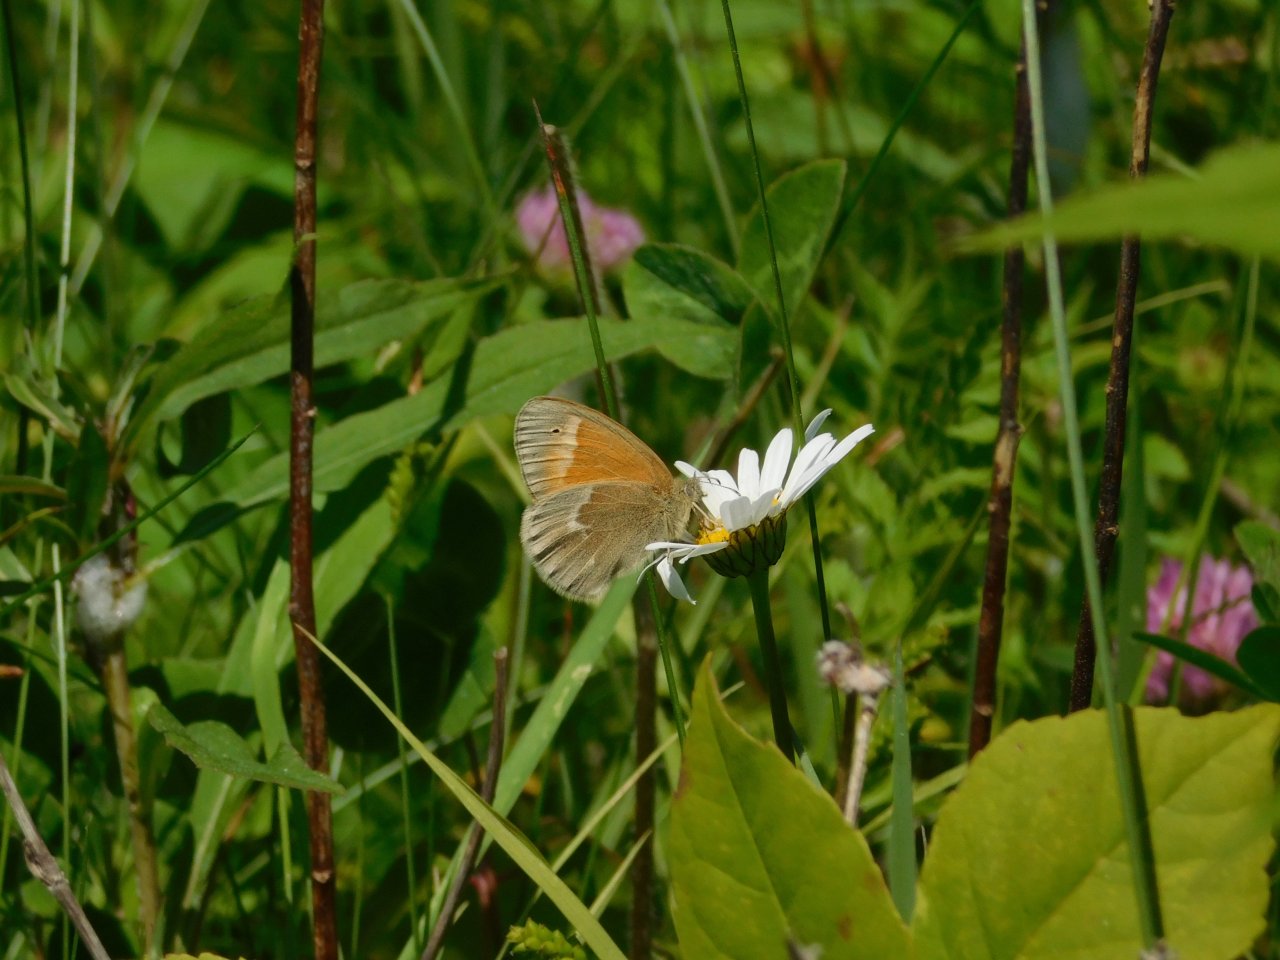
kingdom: Animalia
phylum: Arthropoda
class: Insecta
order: Lepidoptera
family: Nymphalidae
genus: Coenonympha
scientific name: Coenonympha tullia
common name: Large Heath
